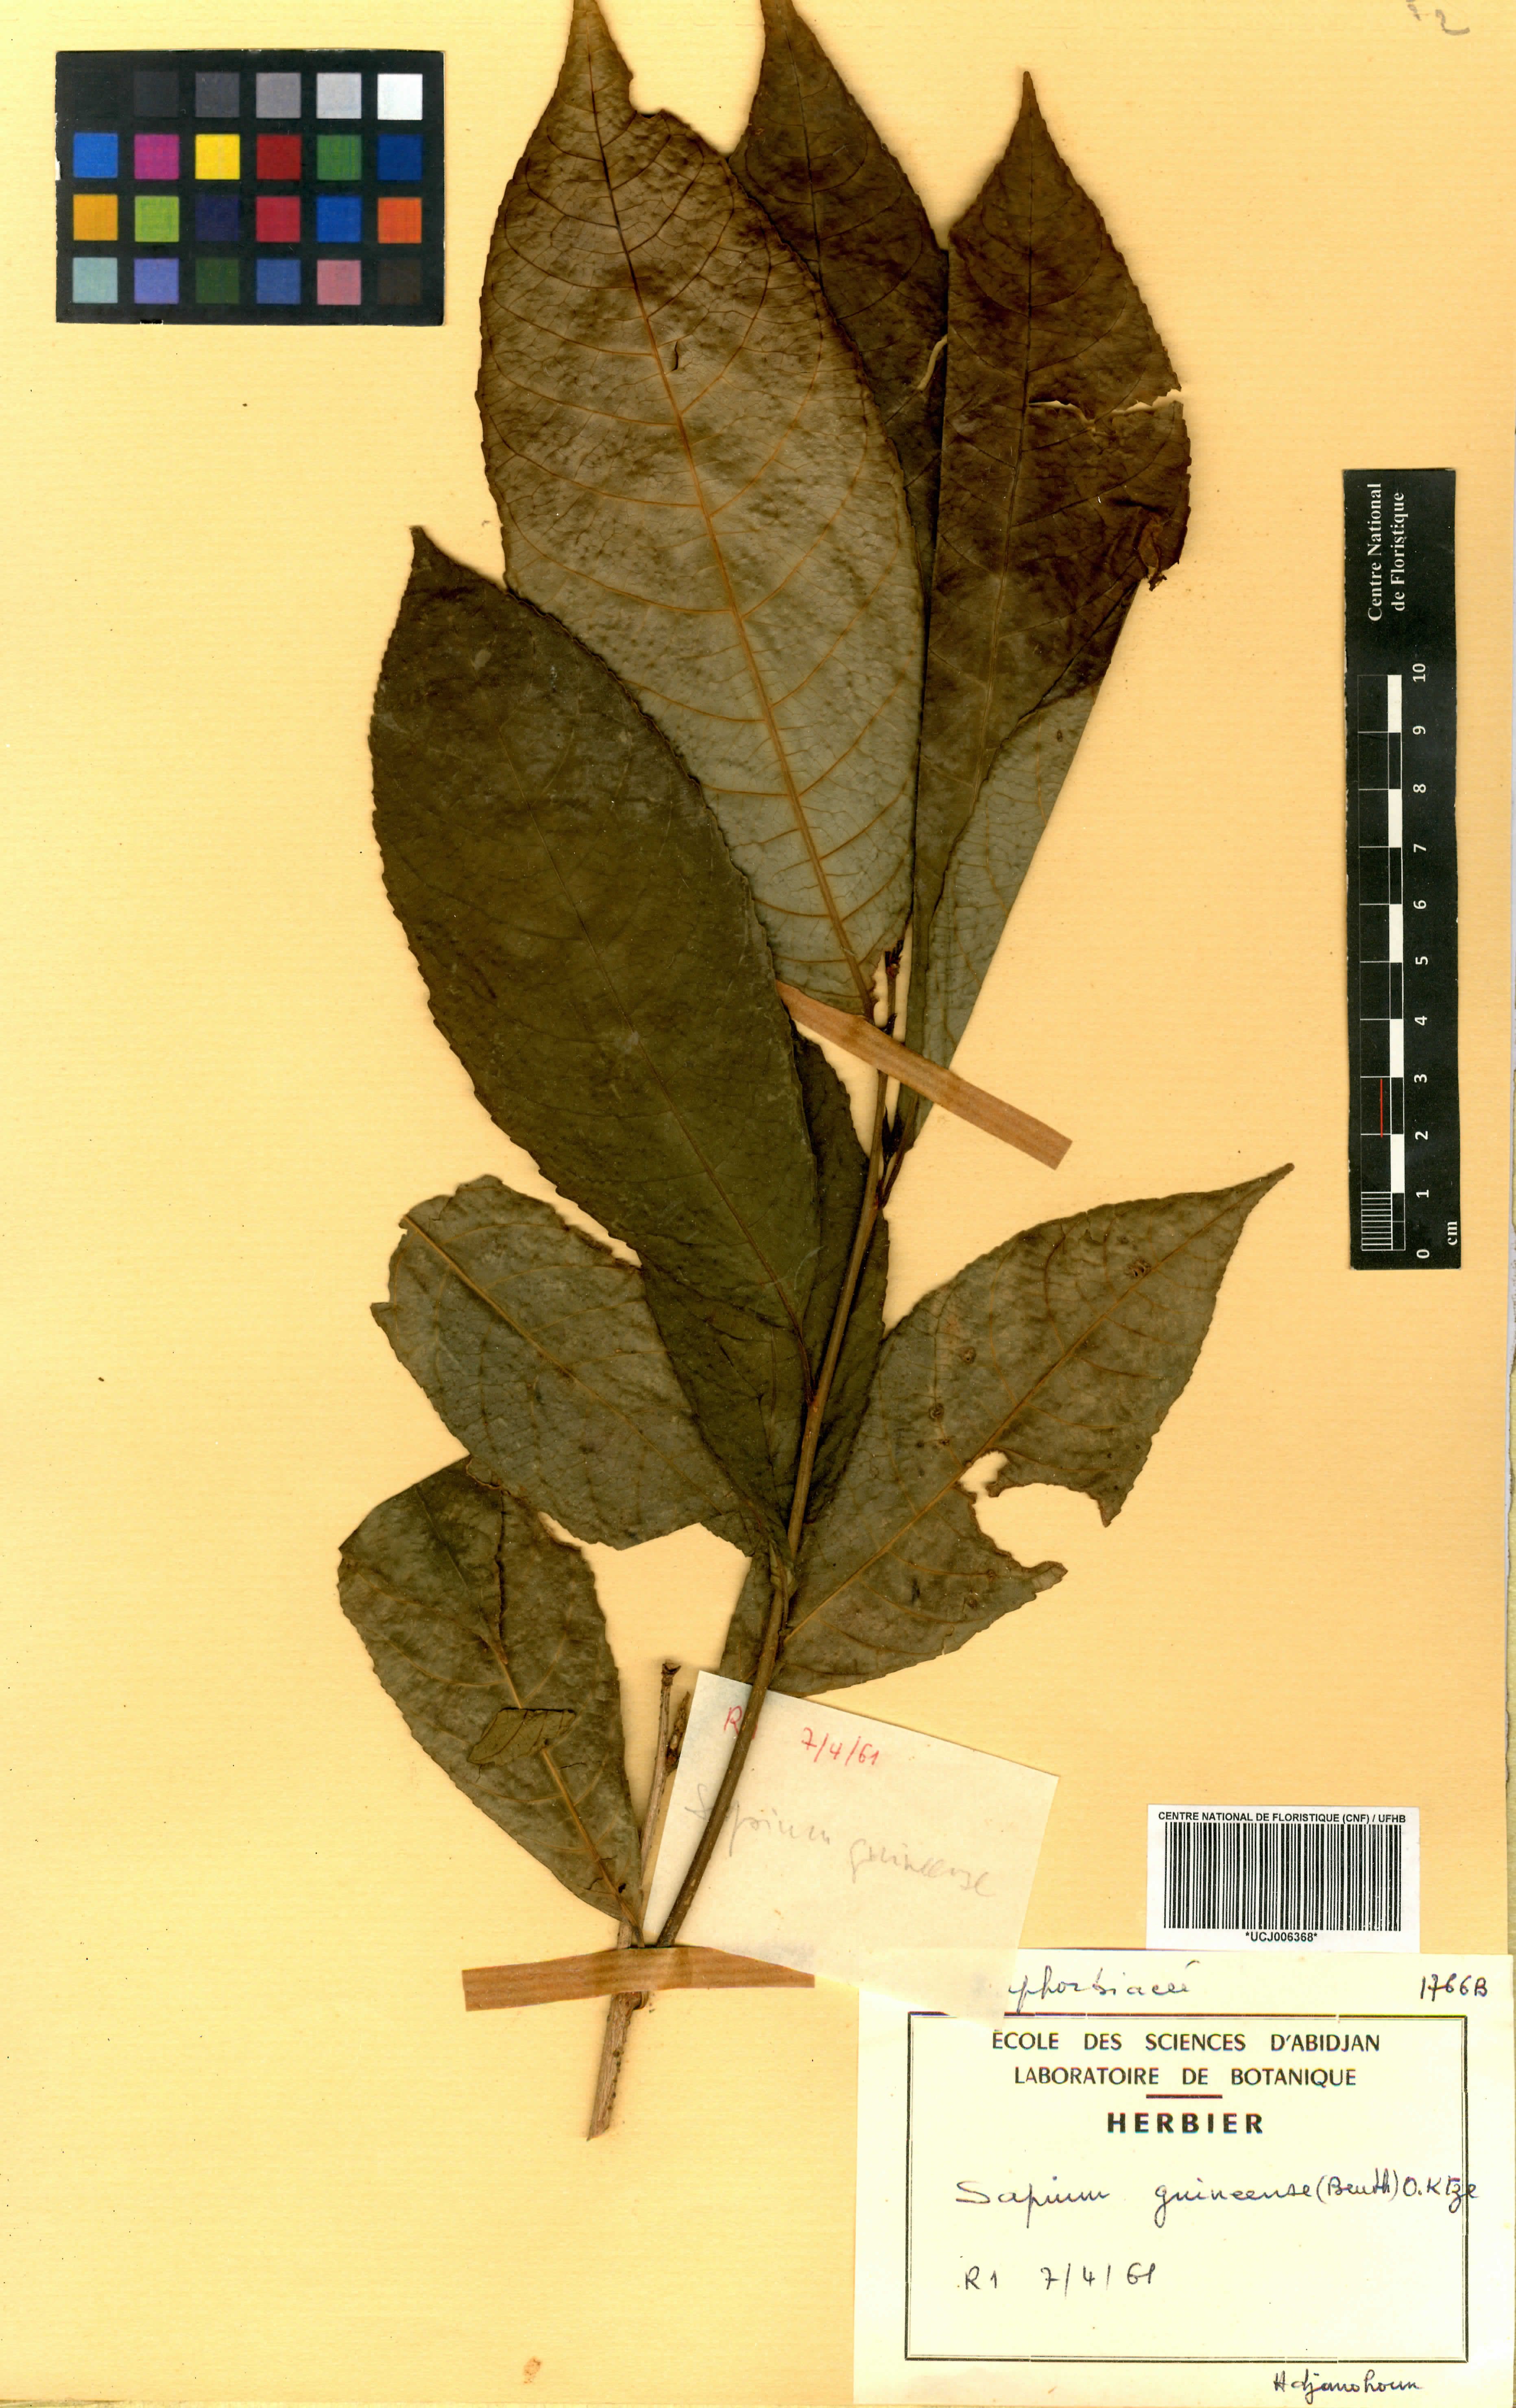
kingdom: Plantae
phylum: Tracheophyta
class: Magnoliopsida
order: Malpighiales
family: Euphorbiaceae
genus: Excoecaria
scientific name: Excoecaria guineensis
